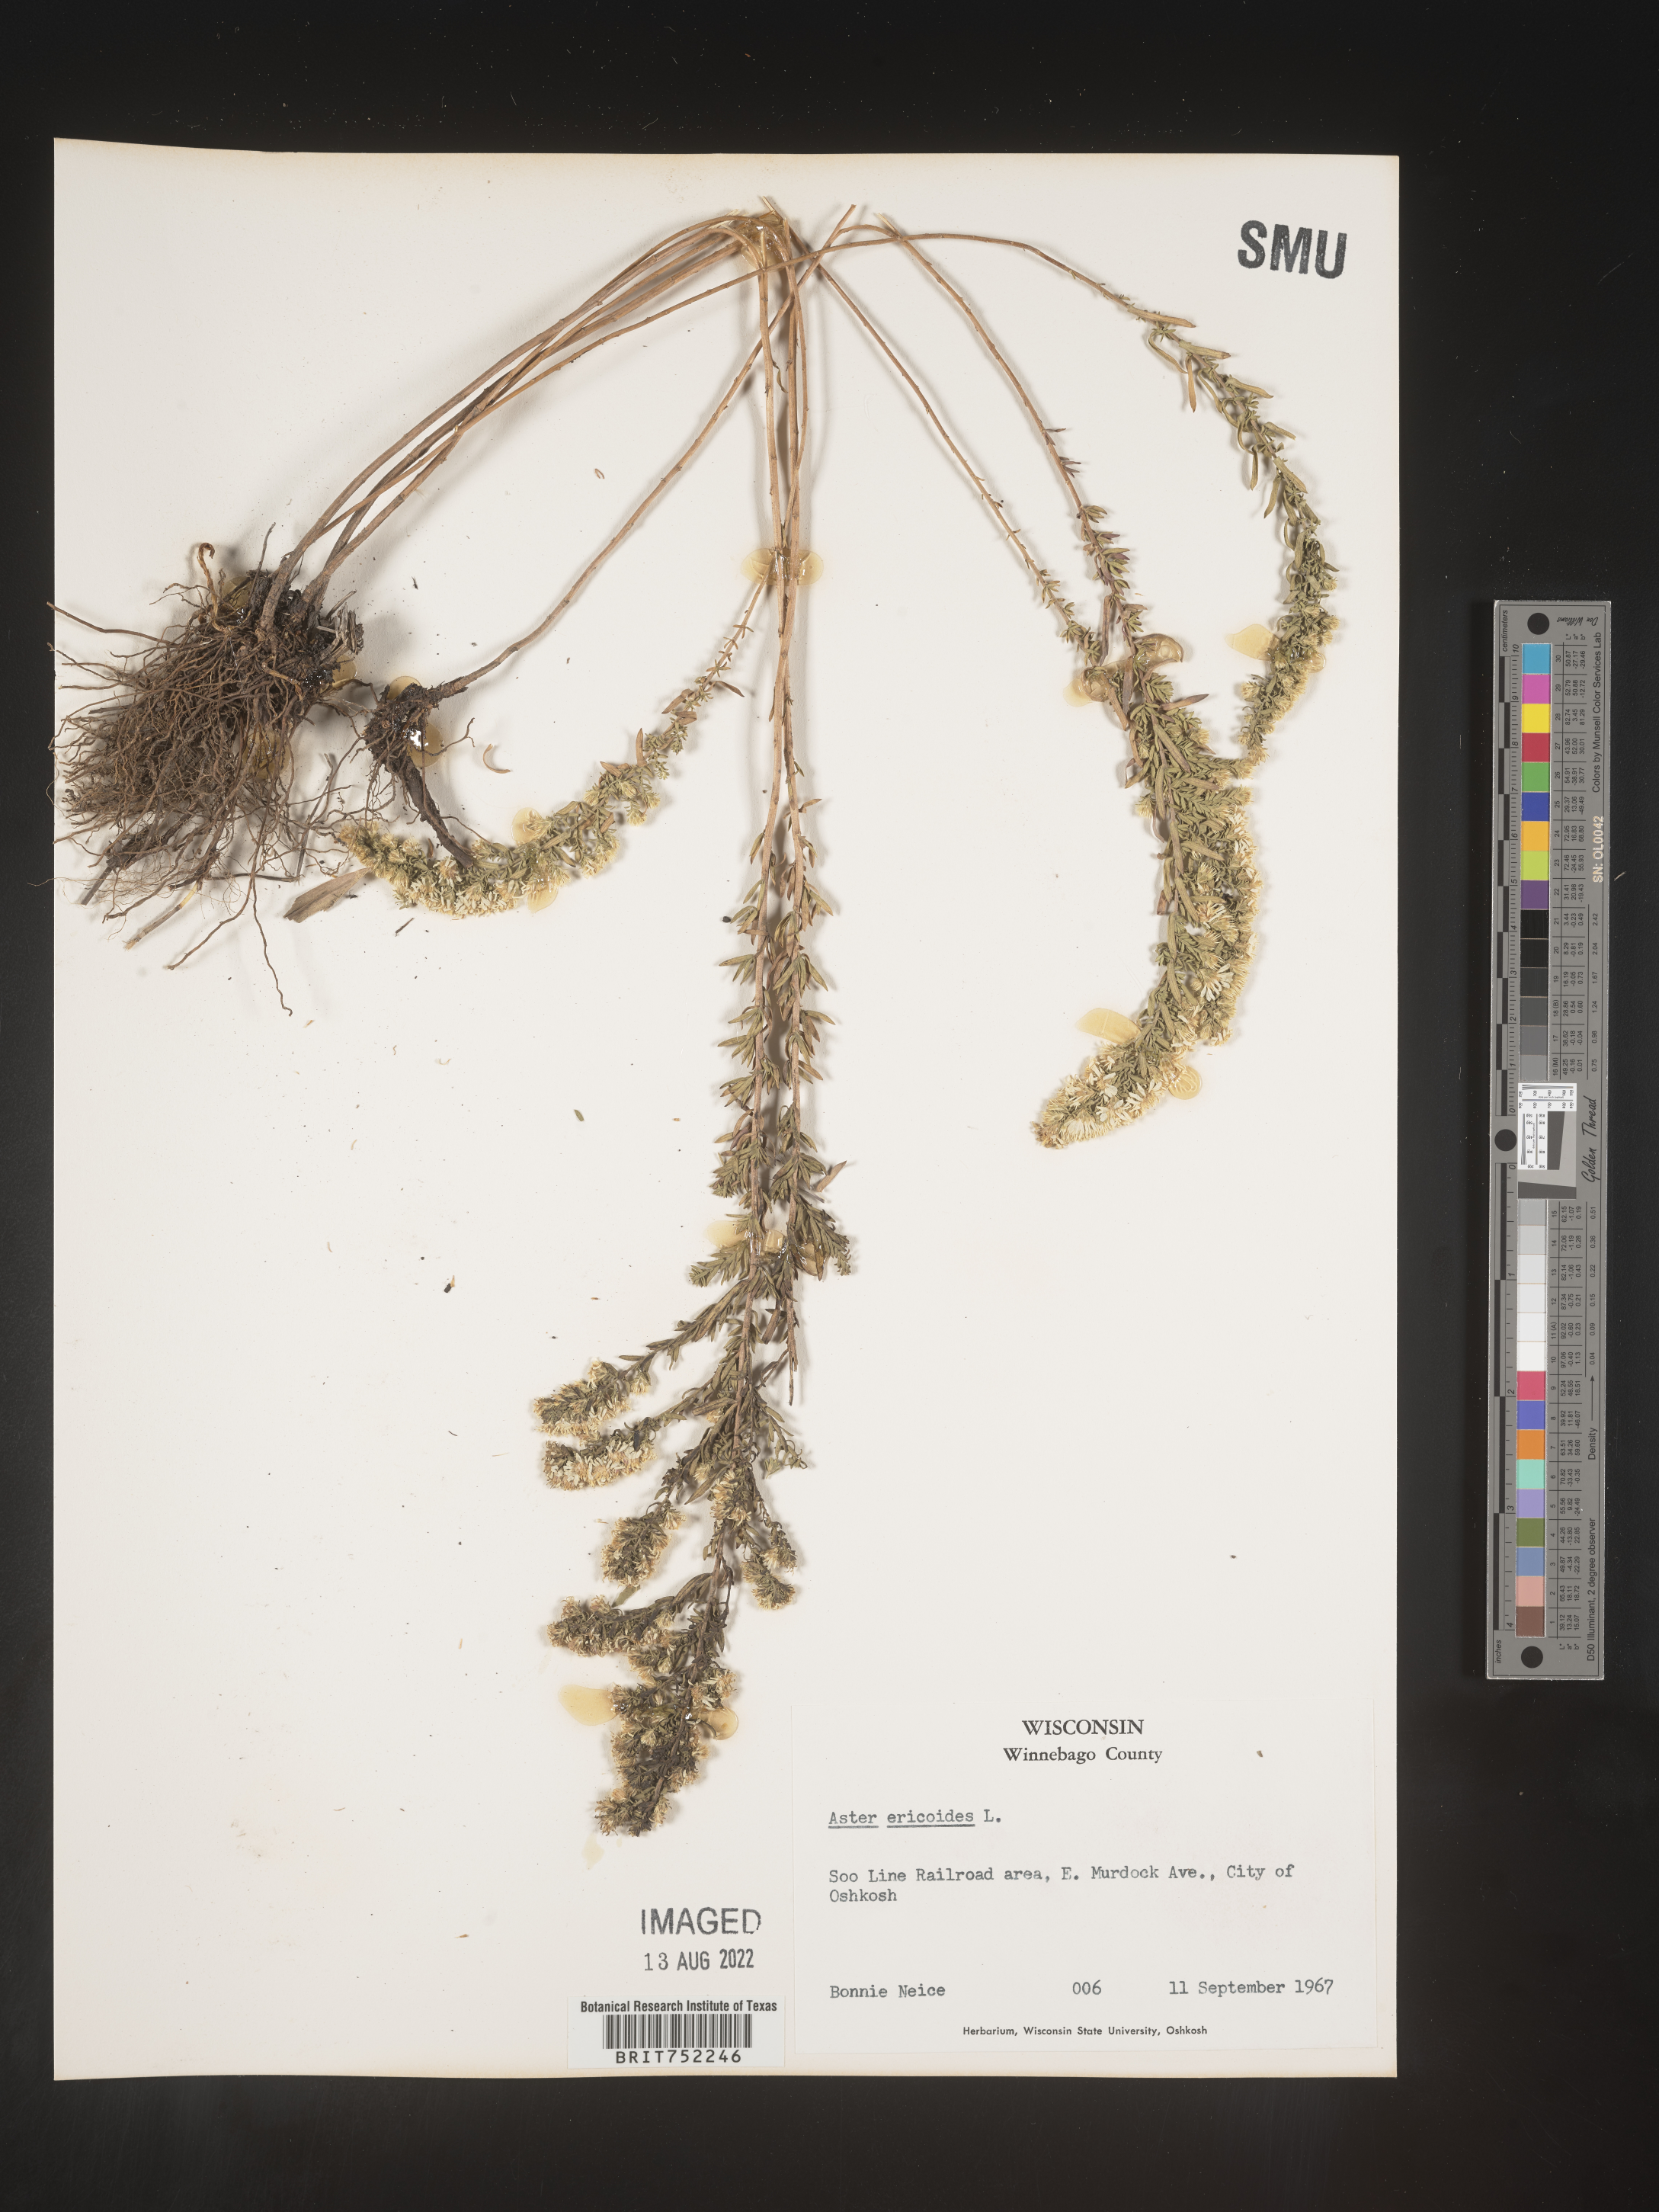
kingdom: Plantae
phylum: Tracheophyta
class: Magnoliopsida
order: Asterales
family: Asteraceae
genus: Symphyotrichum
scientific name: Symphyotrichum ericoides
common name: Heath aster
